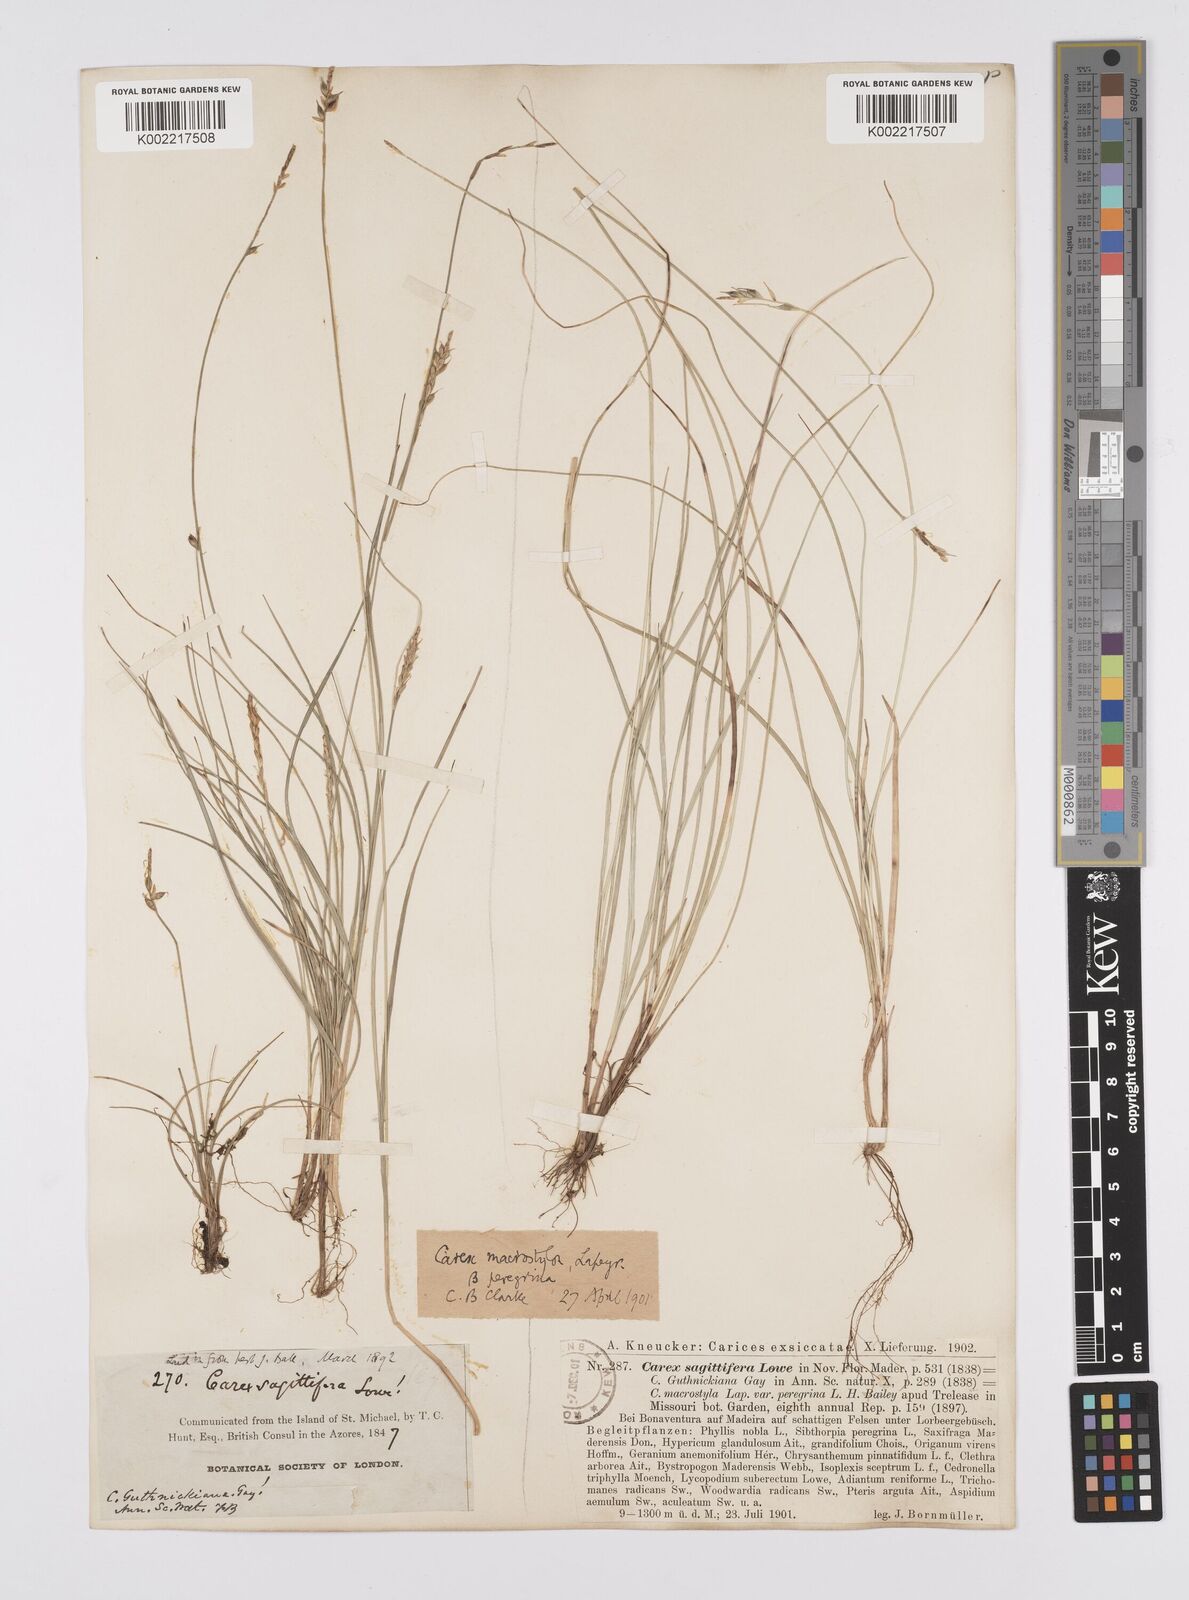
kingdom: Plantae
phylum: Tracheophyta
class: Liliopsida
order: Poales
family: Cyperaceae
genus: Carex
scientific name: Carex peregrina
